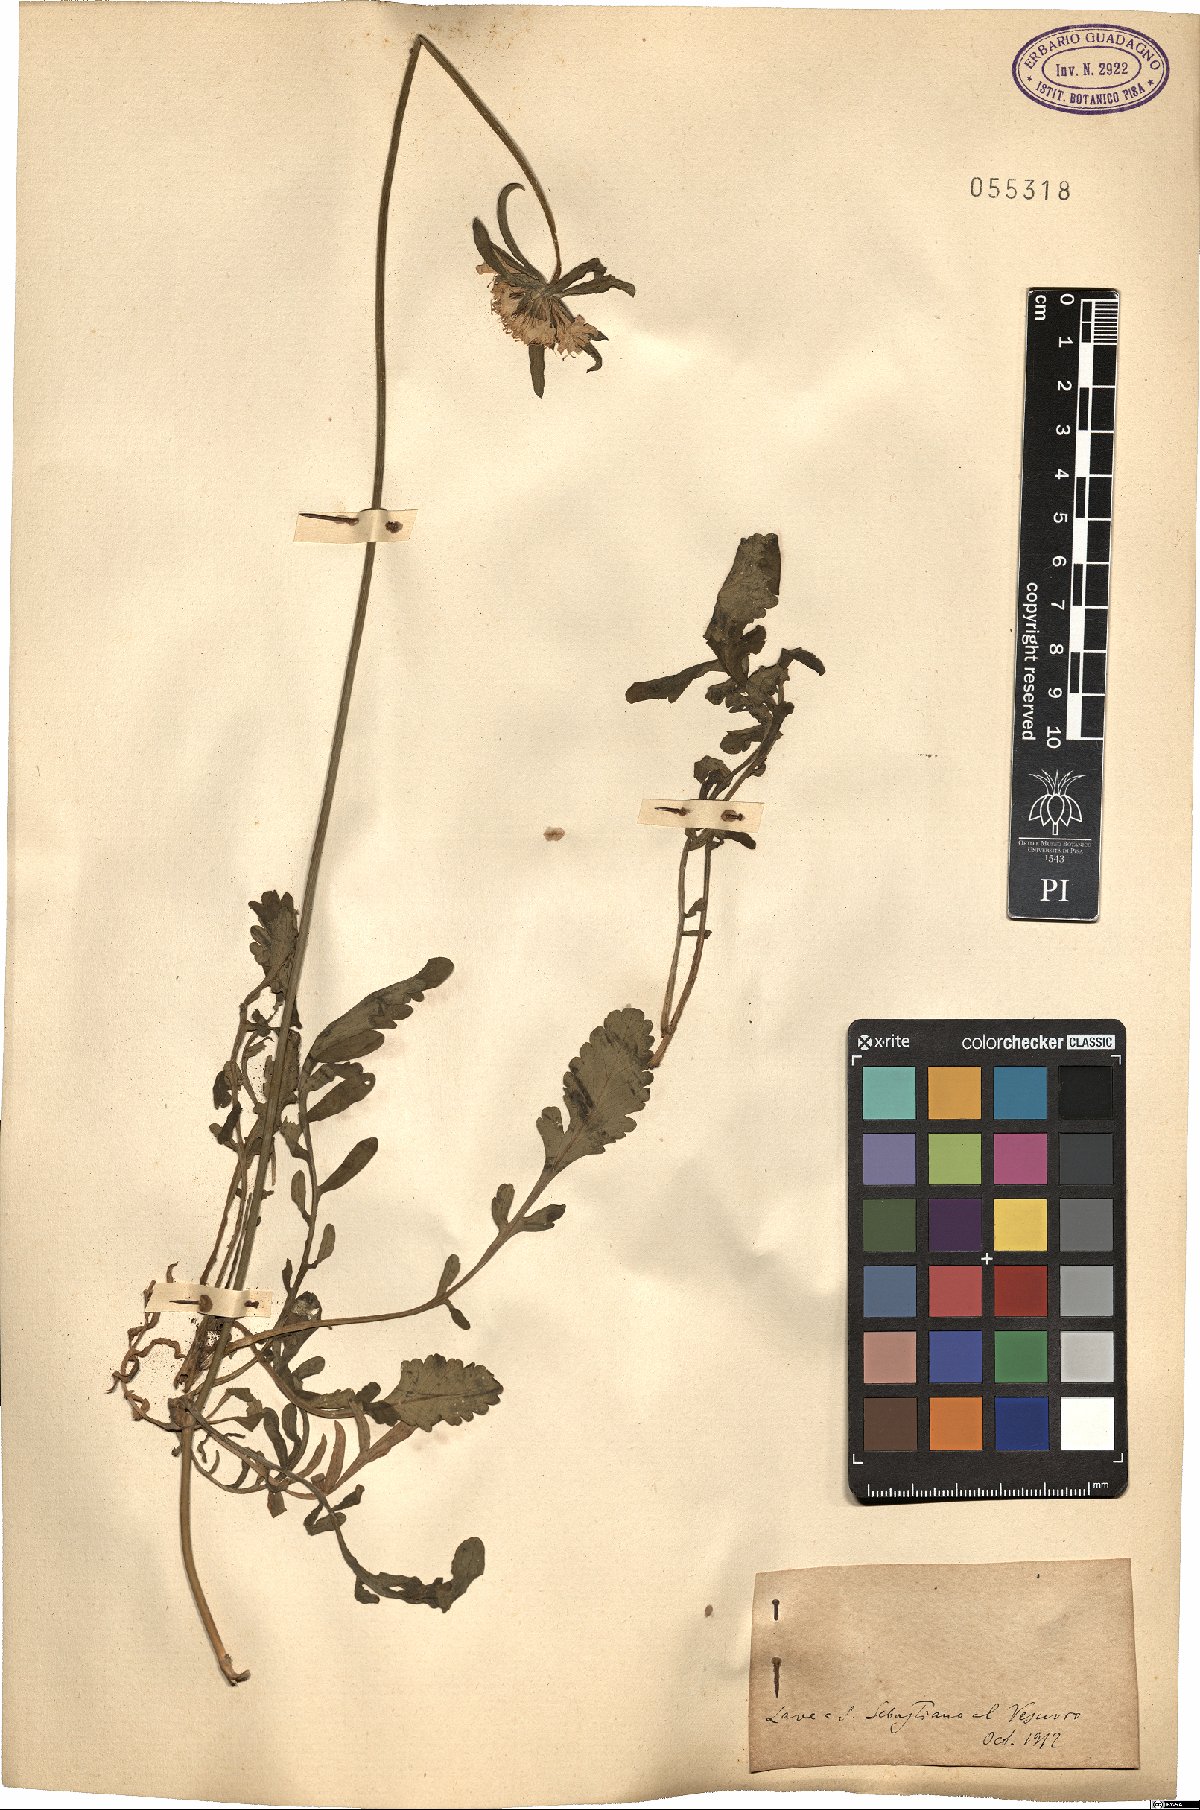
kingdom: Plantae
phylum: Tracheophyta
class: Magnoliopsida
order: Dipsacales
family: Caprifoliaceae
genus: Scabiosa
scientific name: Scabiosa
